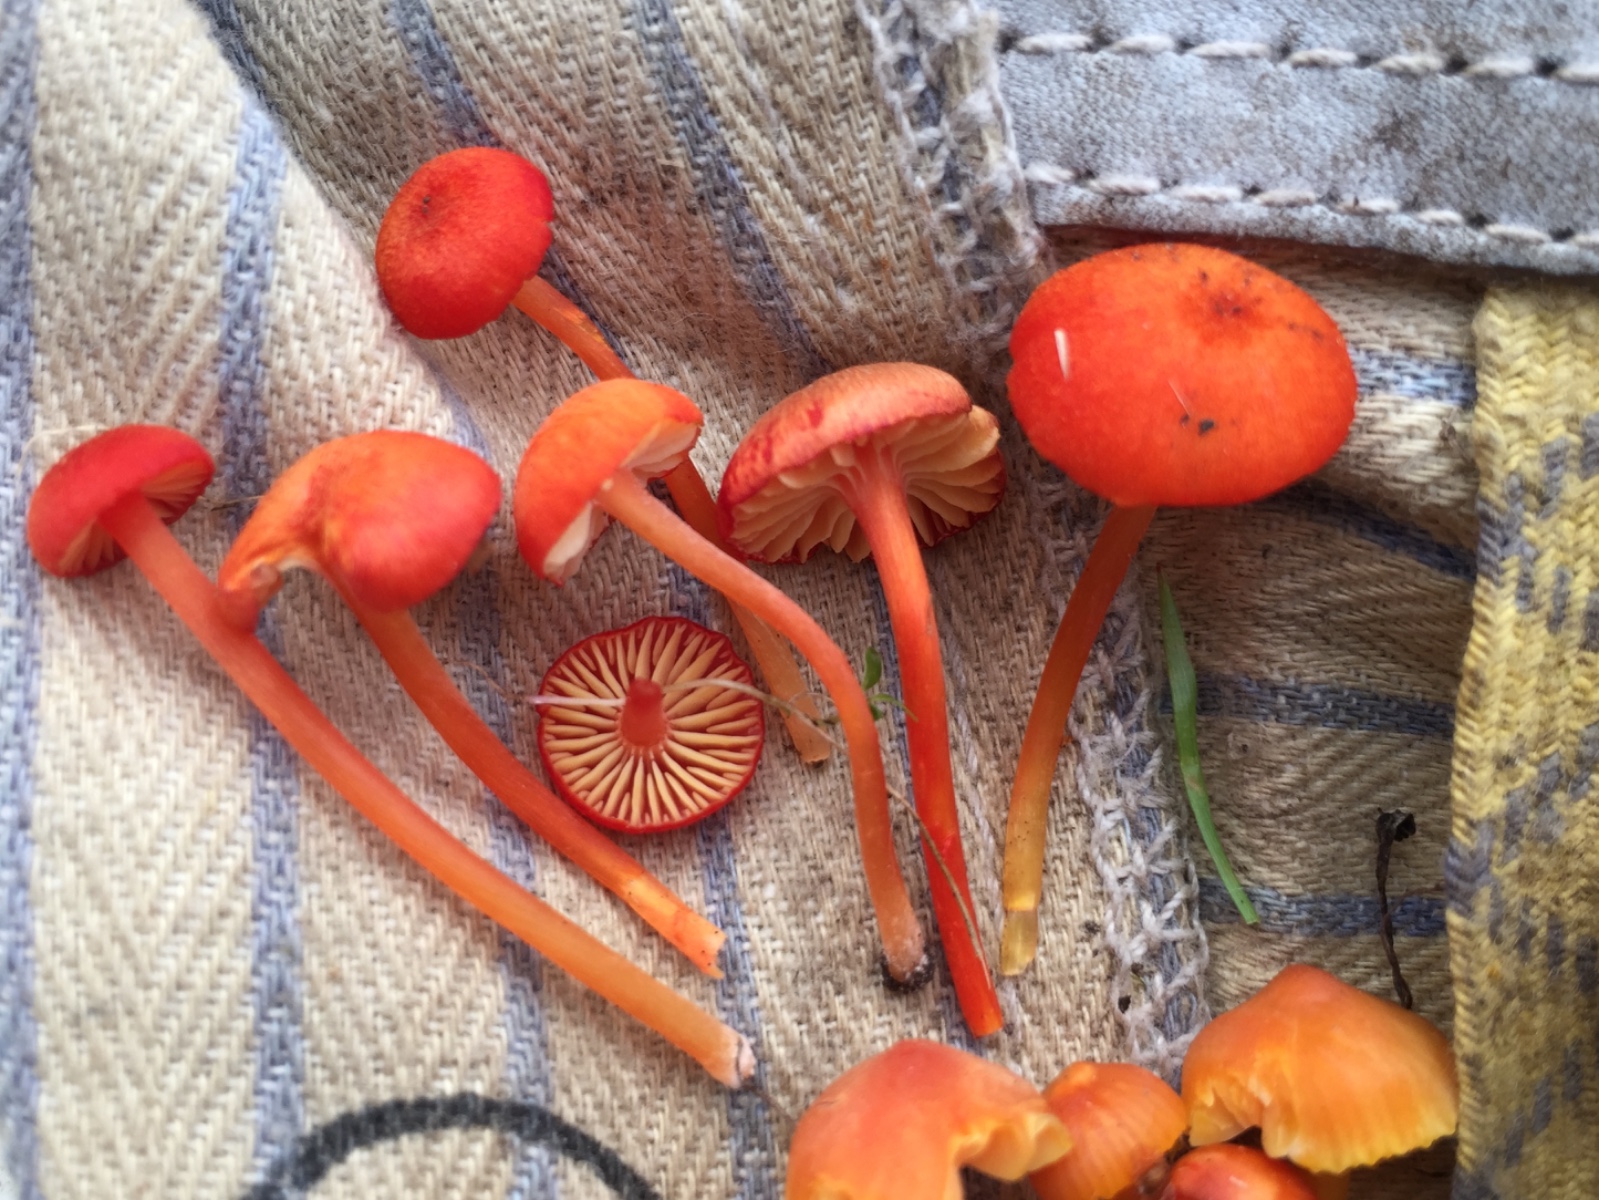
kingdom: Fungi
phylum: Basidiomycota
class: Agaricomycetes
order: Agaricales
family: Hygrophoraceae
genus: Hygrocybe
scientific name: Hygrocybe helobia
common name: hvidløgs-vokshat
